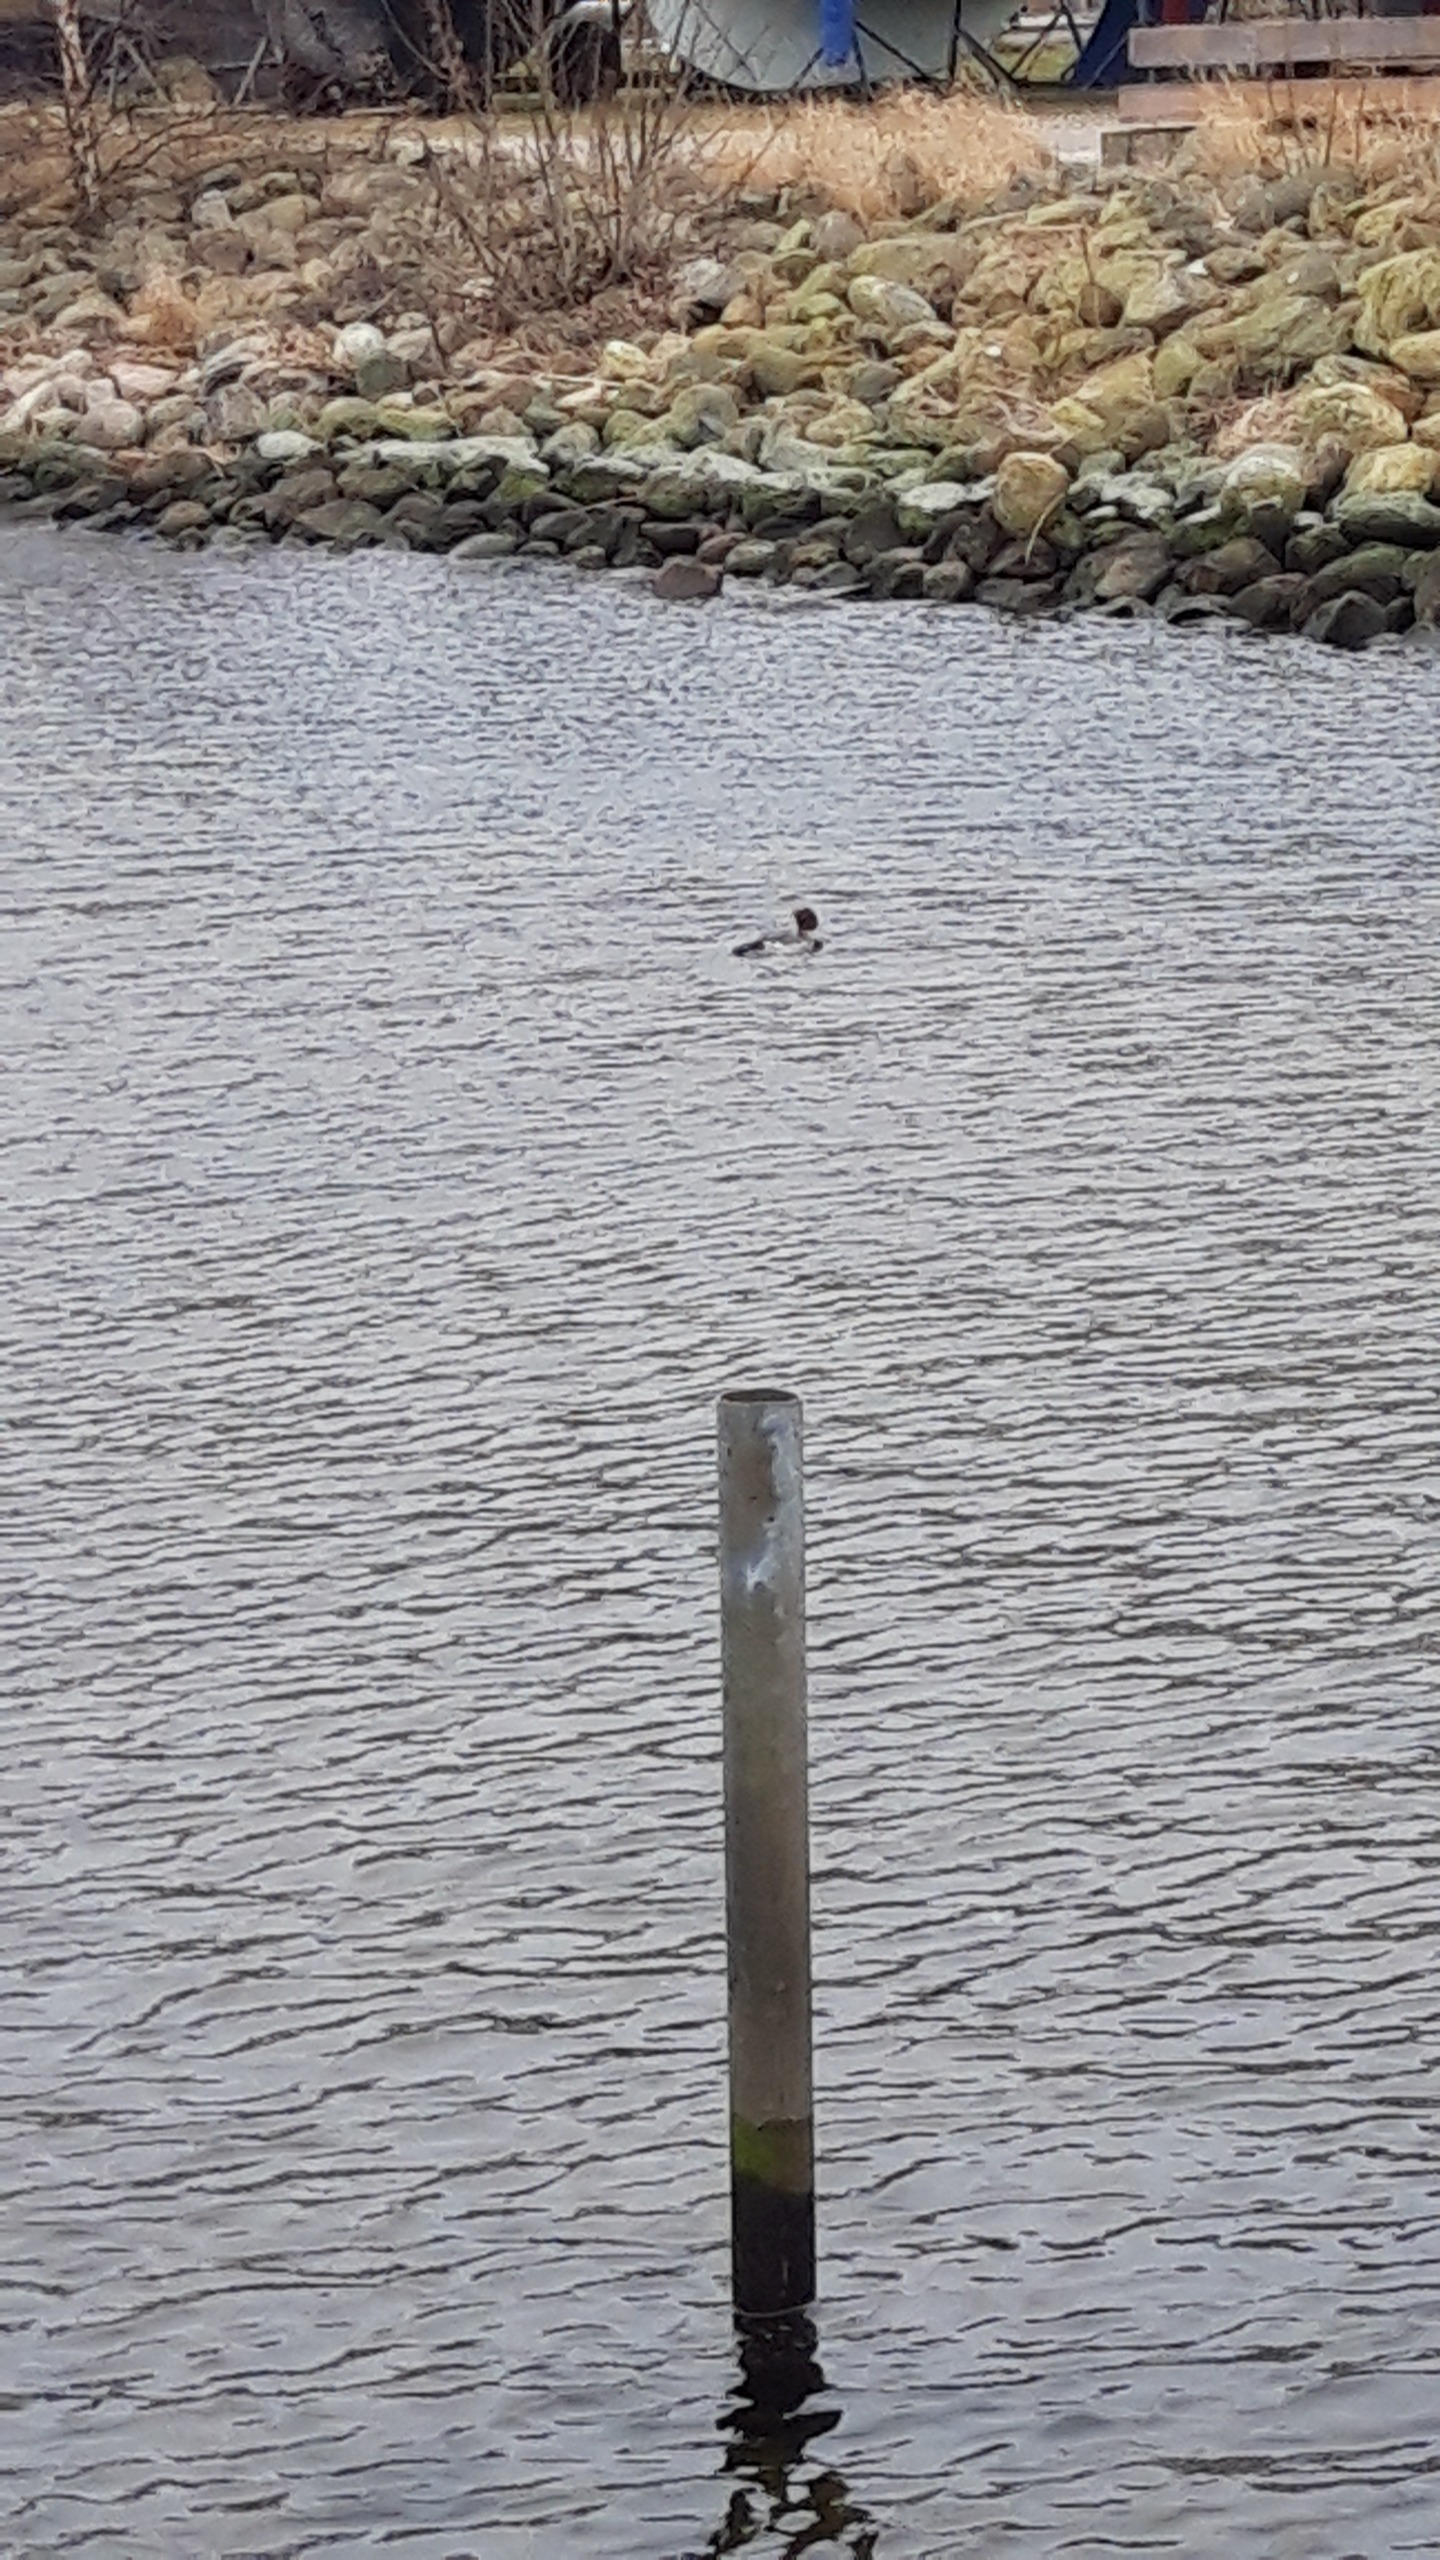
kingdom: Animalia
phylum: Chordata
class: Aves
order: Anseriformes
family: Anatidae
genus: Mergus
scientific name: Mergus serrator
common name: Toppet skallesluger
